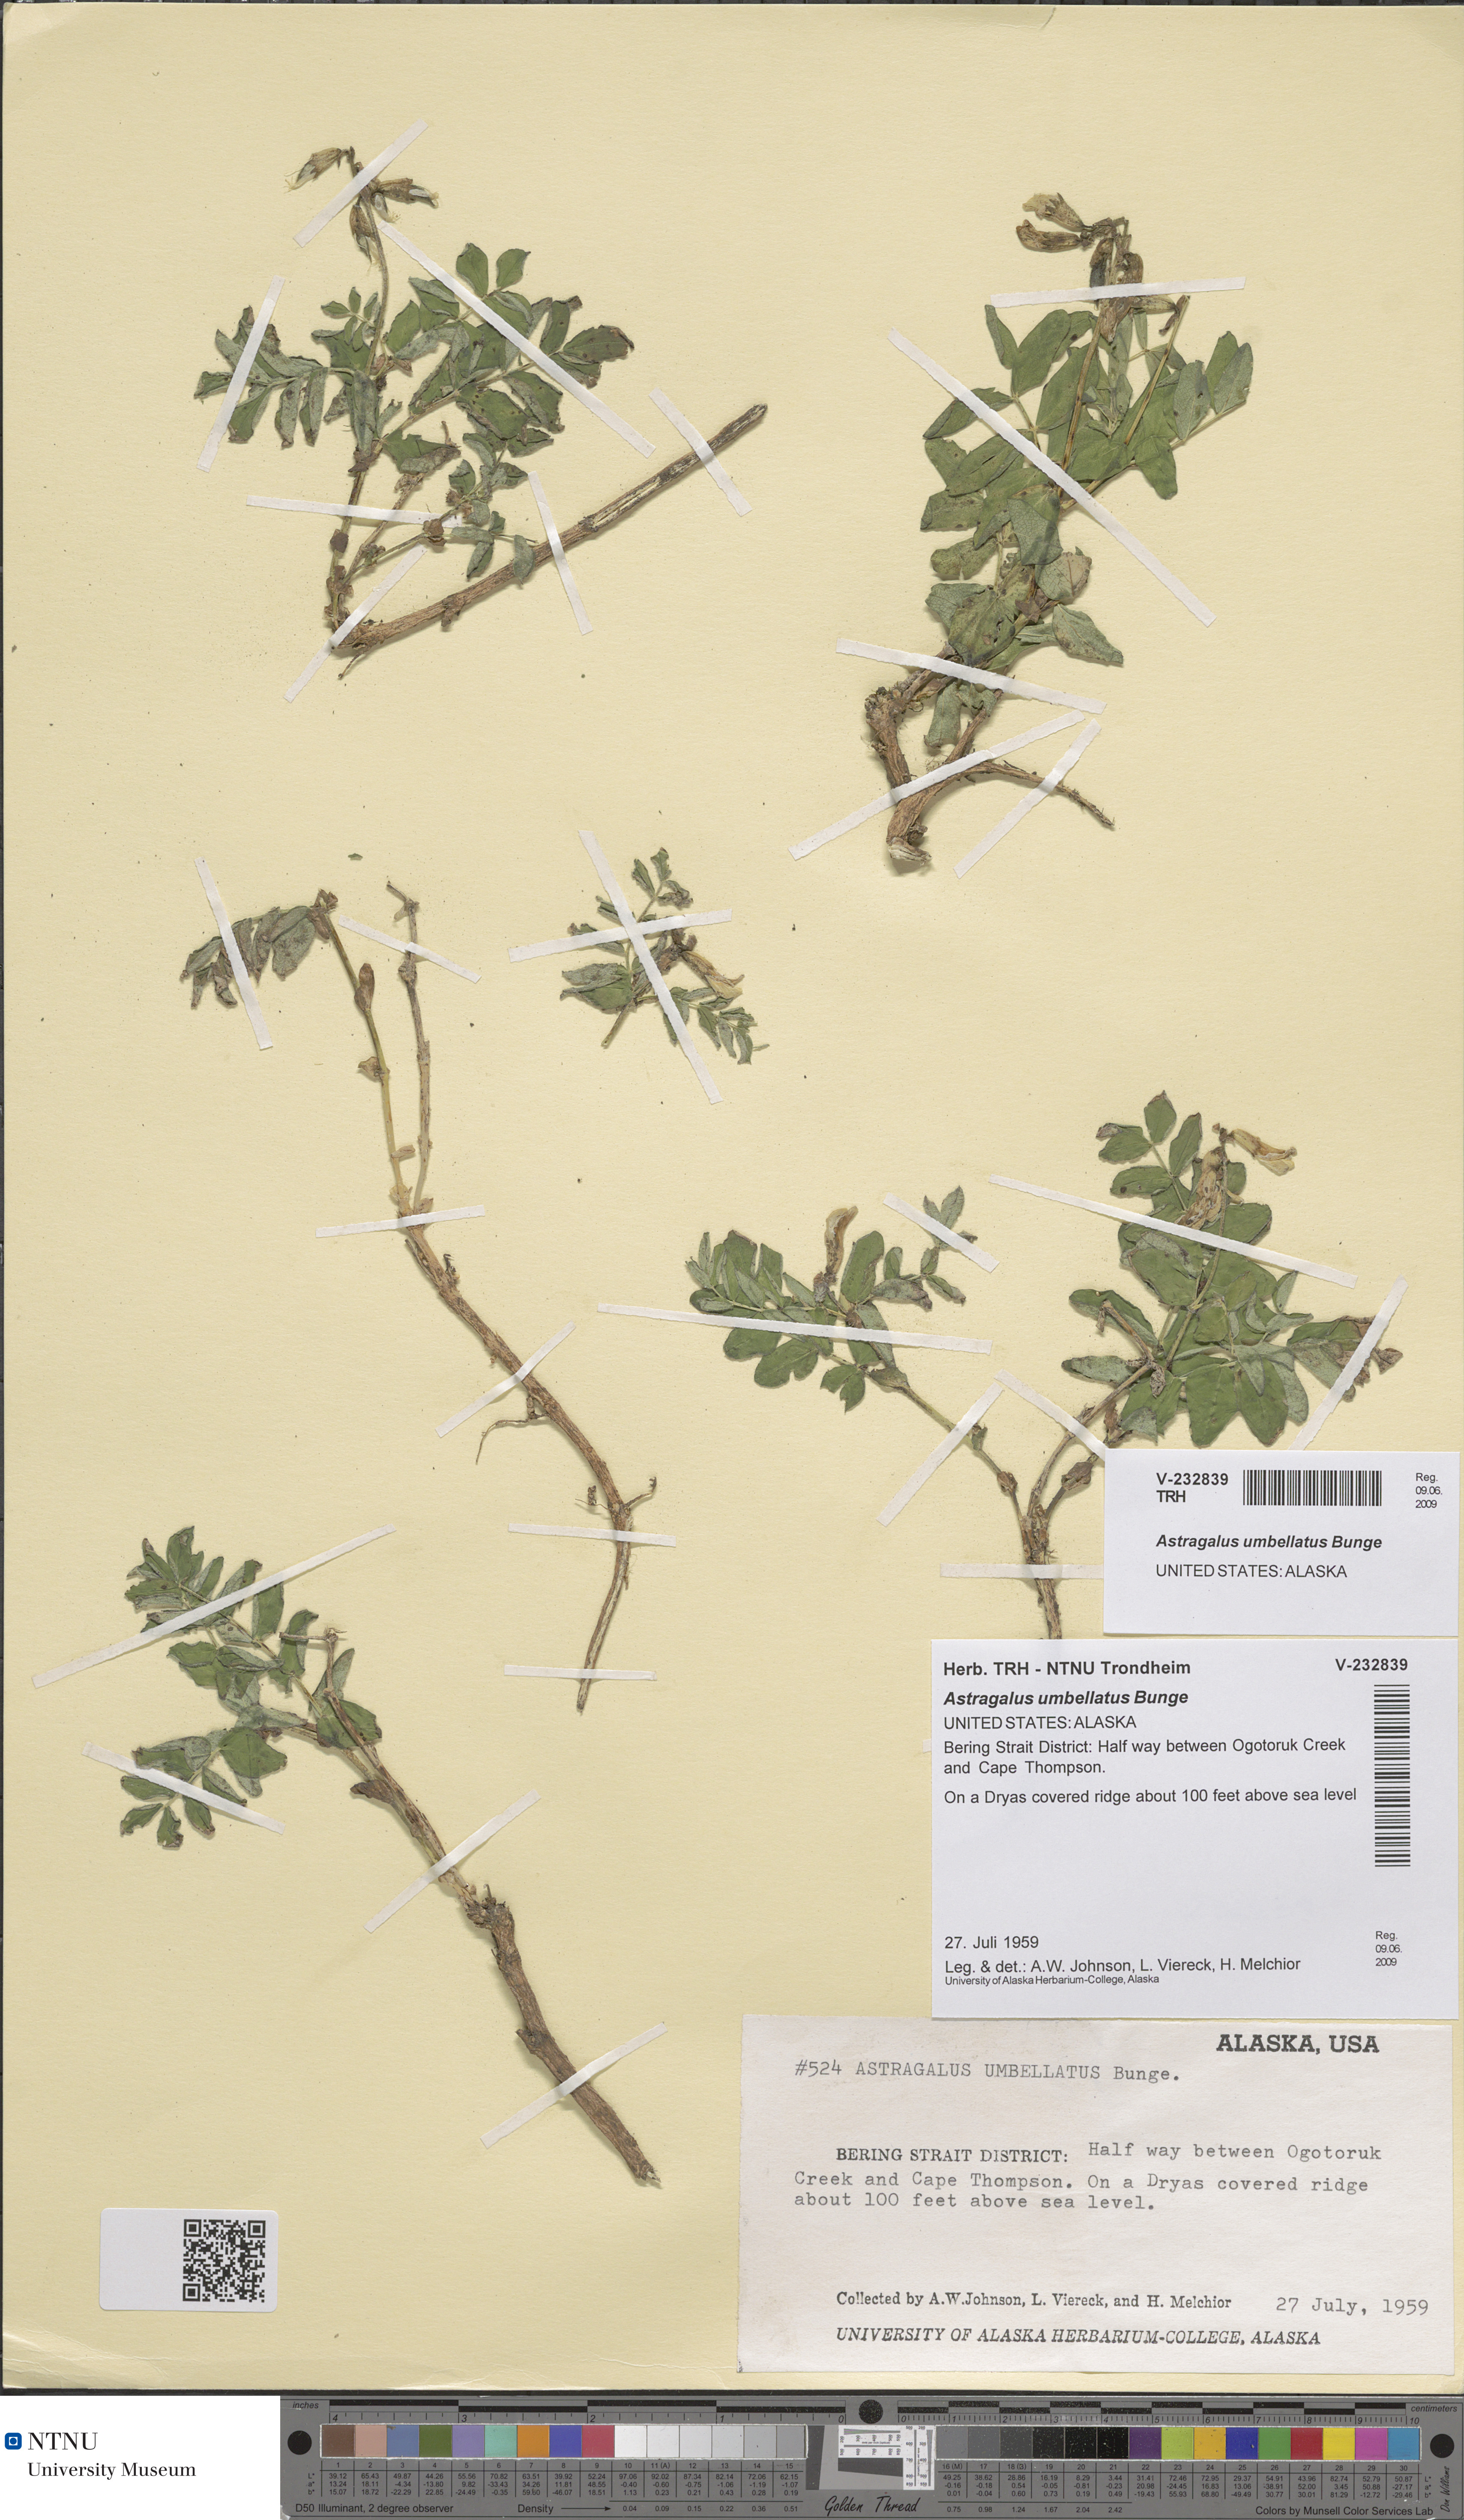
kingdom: Plantae
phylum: Tracheophyta
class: Magnoliopsida
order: Fabales
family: Fabaceae
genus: Astragalus
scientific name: Astragalus umbellatus
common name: Tundra milk-vetch
